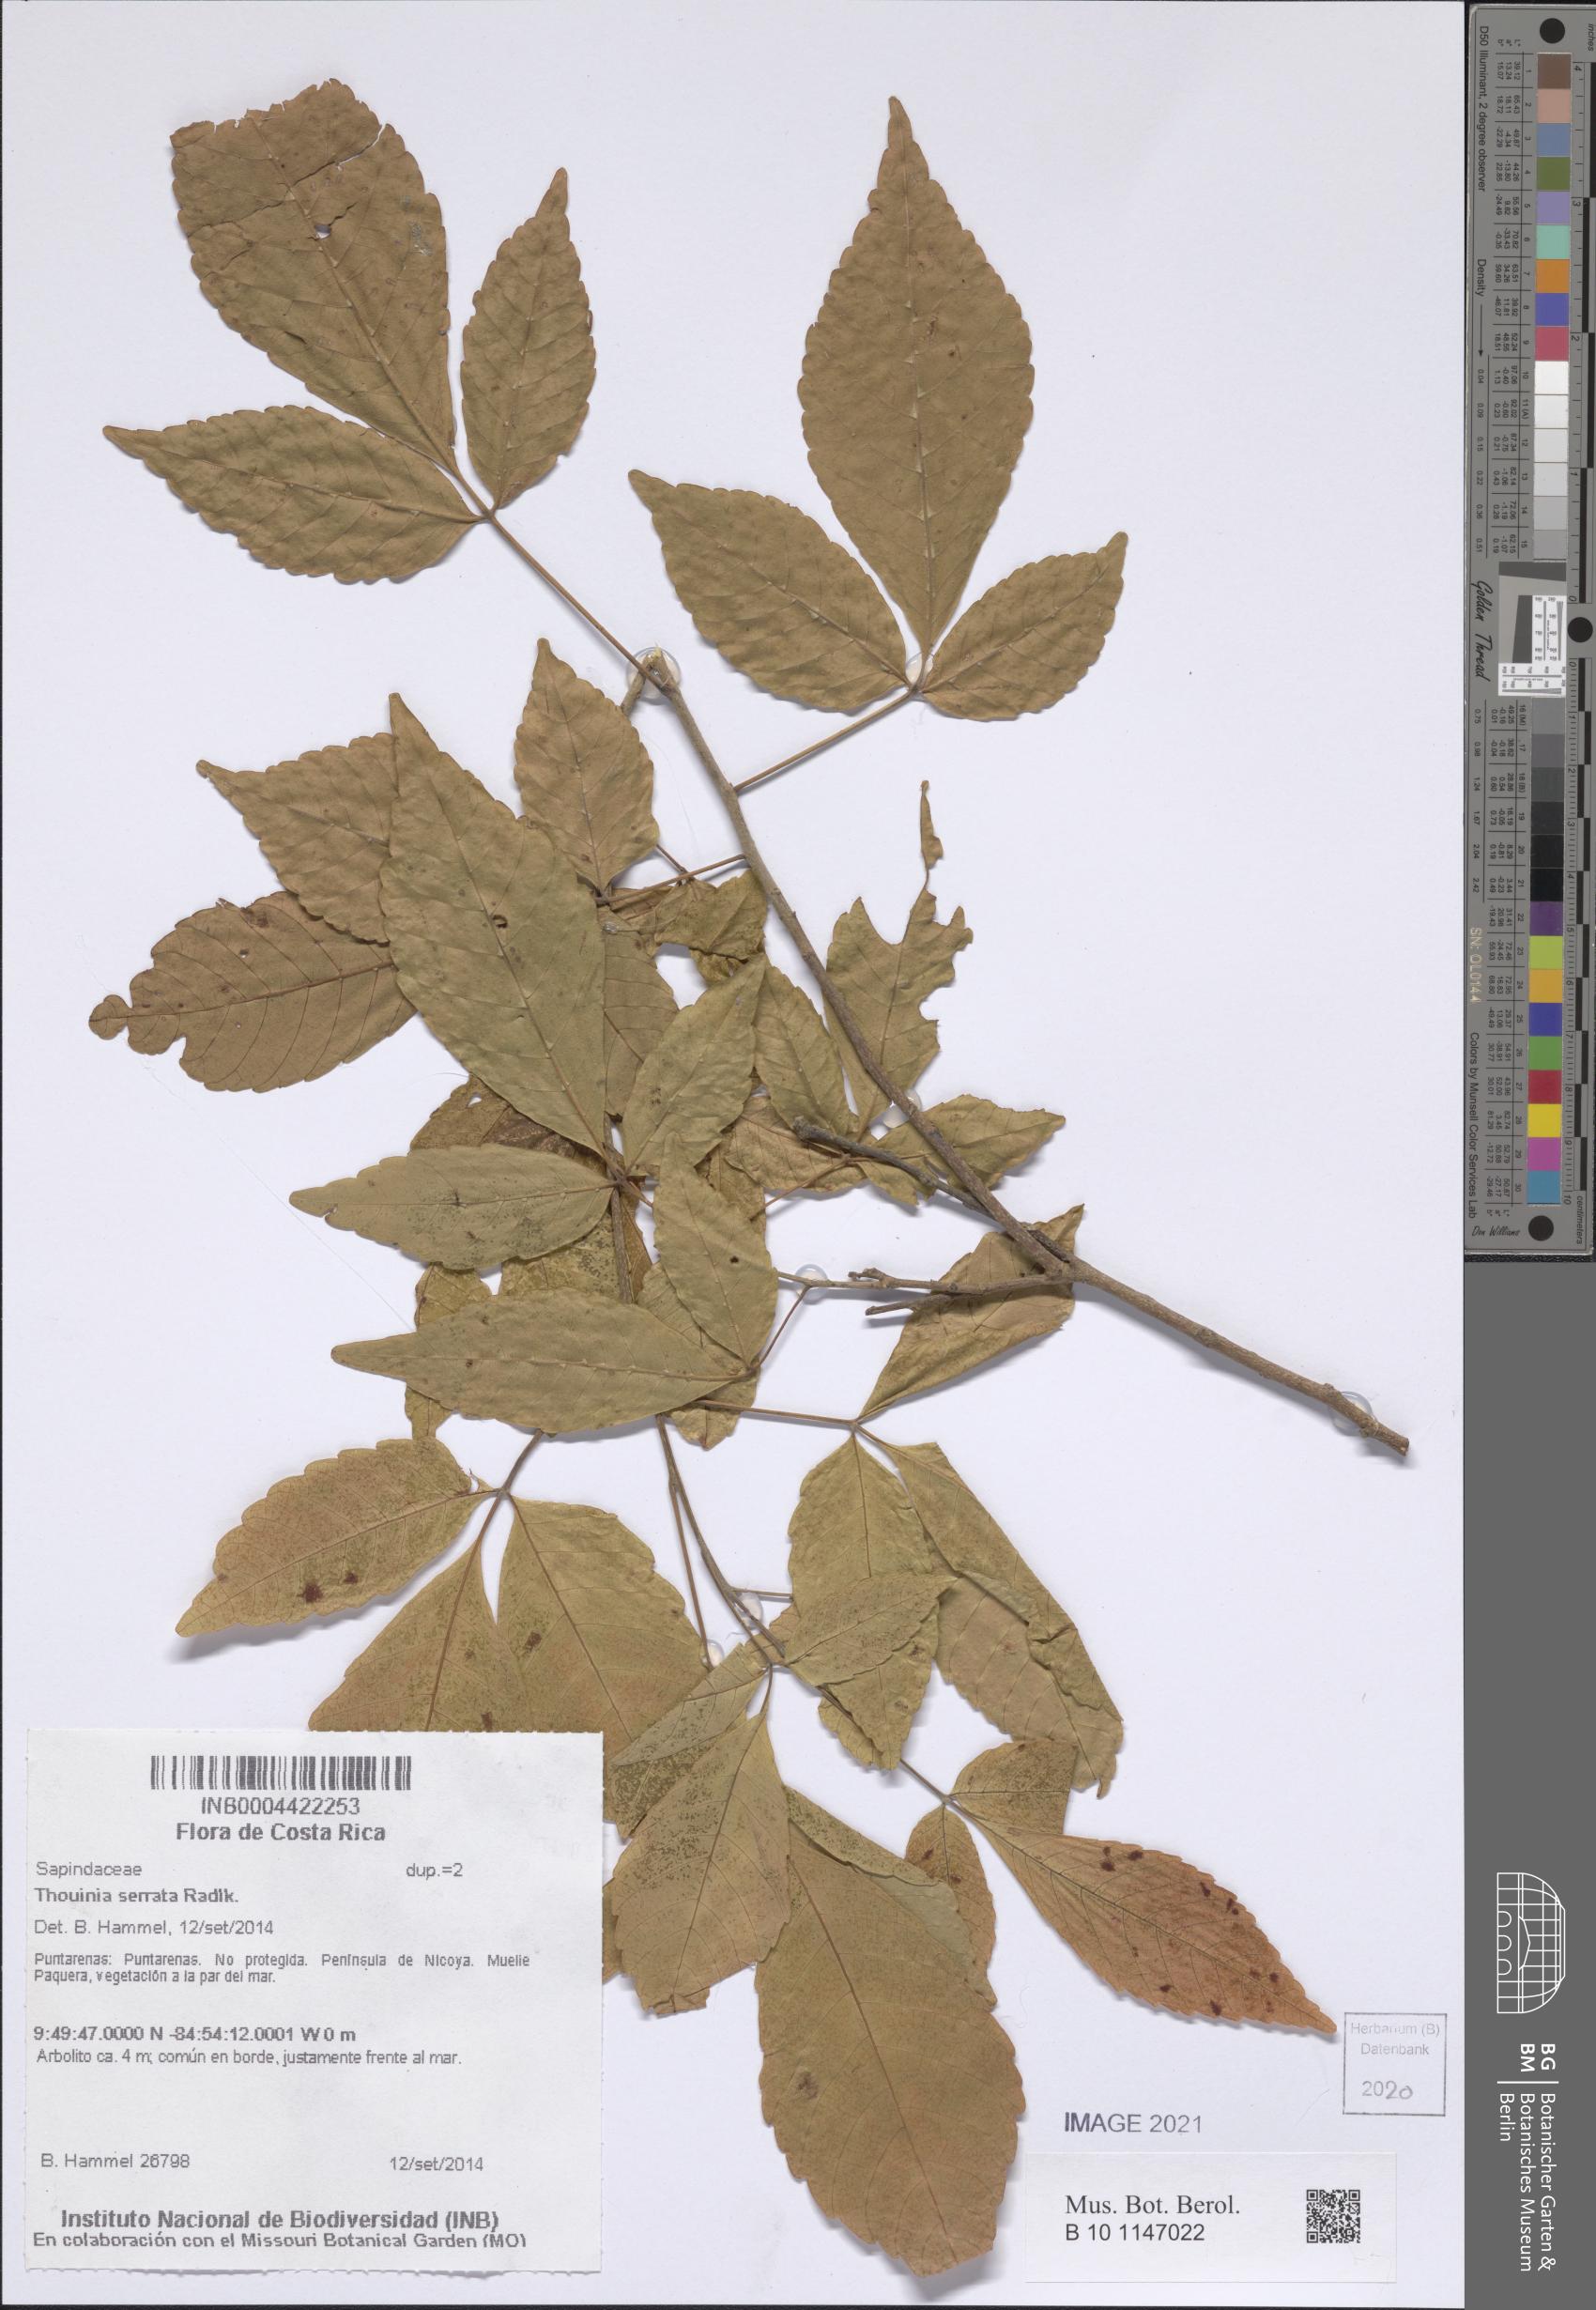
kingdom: Plantae
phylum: Tracheophyta
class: Magnoliopsida
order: Sapindales
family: Sapindaceae
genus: Thouinia
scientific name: Thouinia serrata
